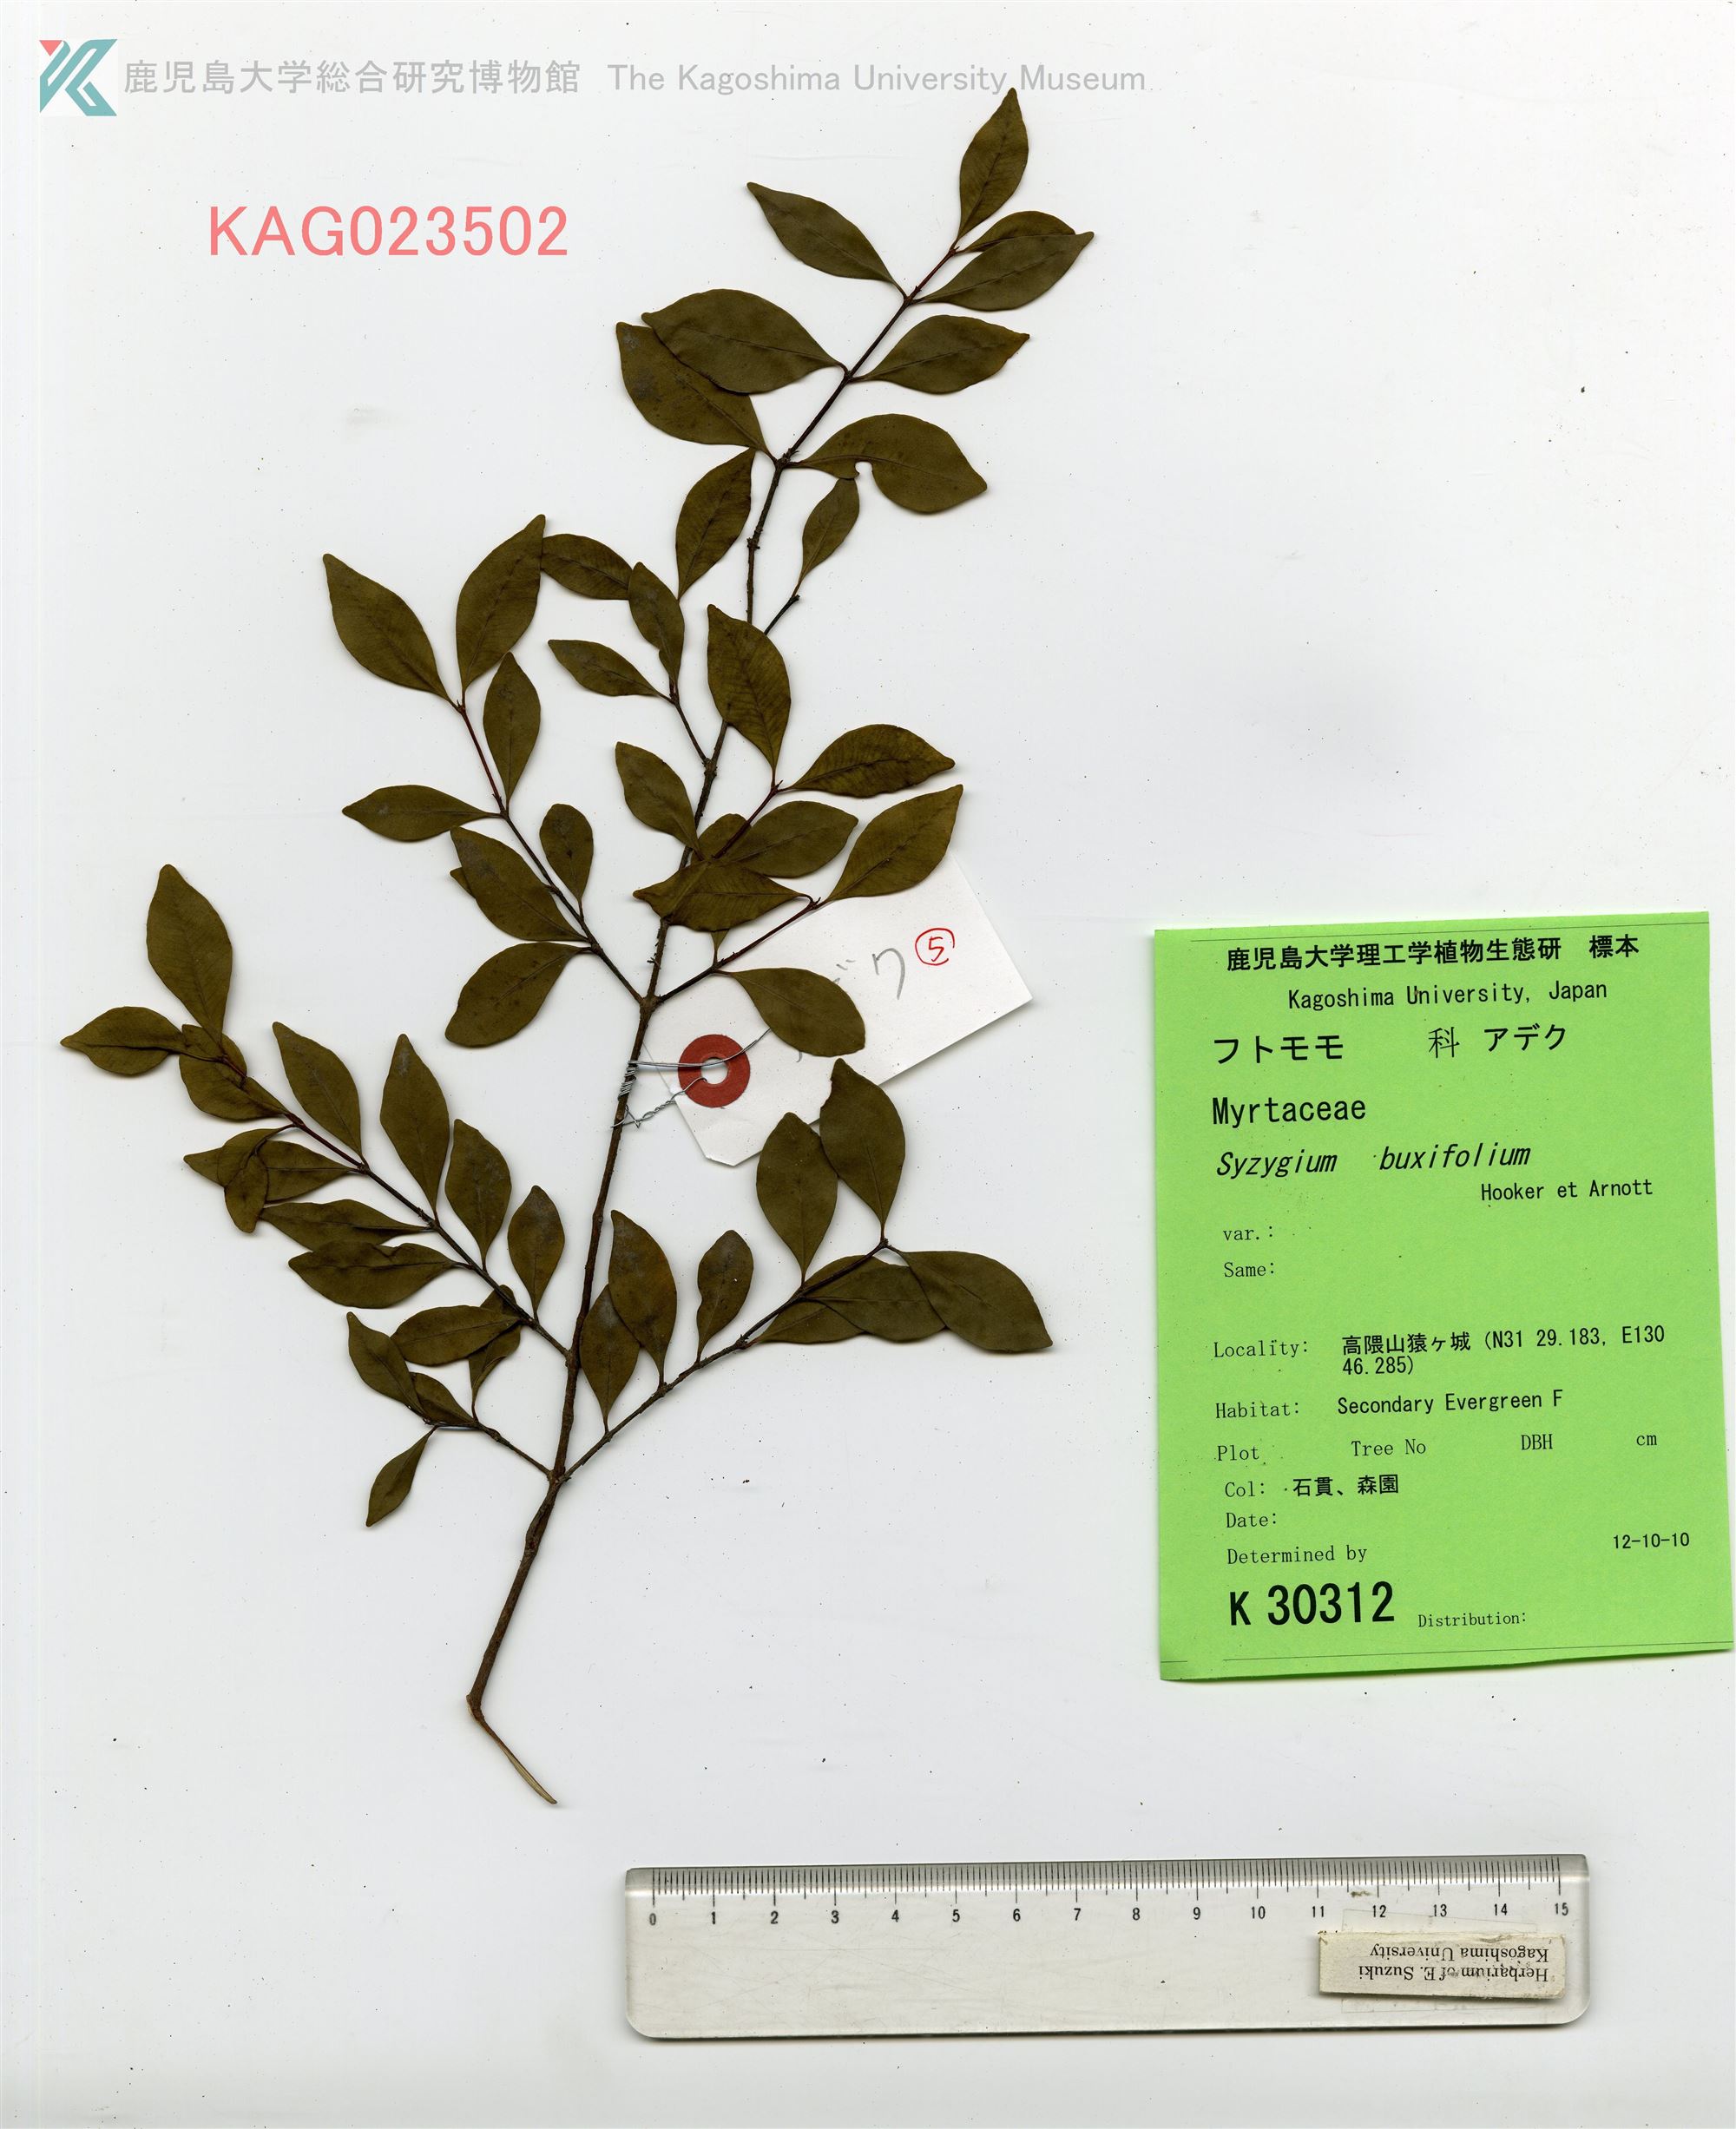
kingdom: Plantae
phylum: Tracheophyta
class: Magnoliopsida
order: Myrtales
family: Myrtaceae
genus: Syzygium
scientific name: Syzygium buxifolium
